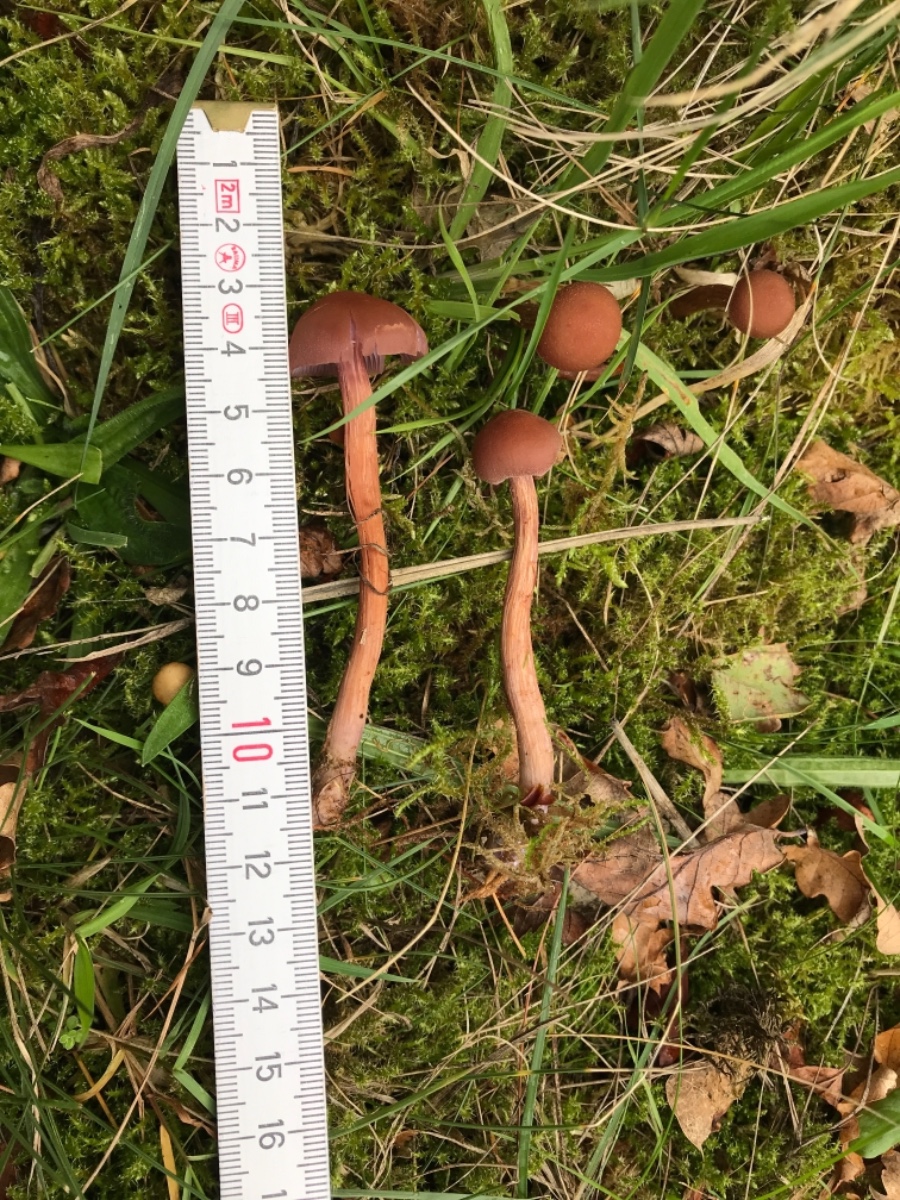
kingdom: Fungi
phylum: Basidiomycota
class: Agaricomycetes
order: Agaricales
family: Hydnangiaceae
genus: Laccaria
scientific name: Laccaria bicolor
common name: tvefarvet ametysthat
